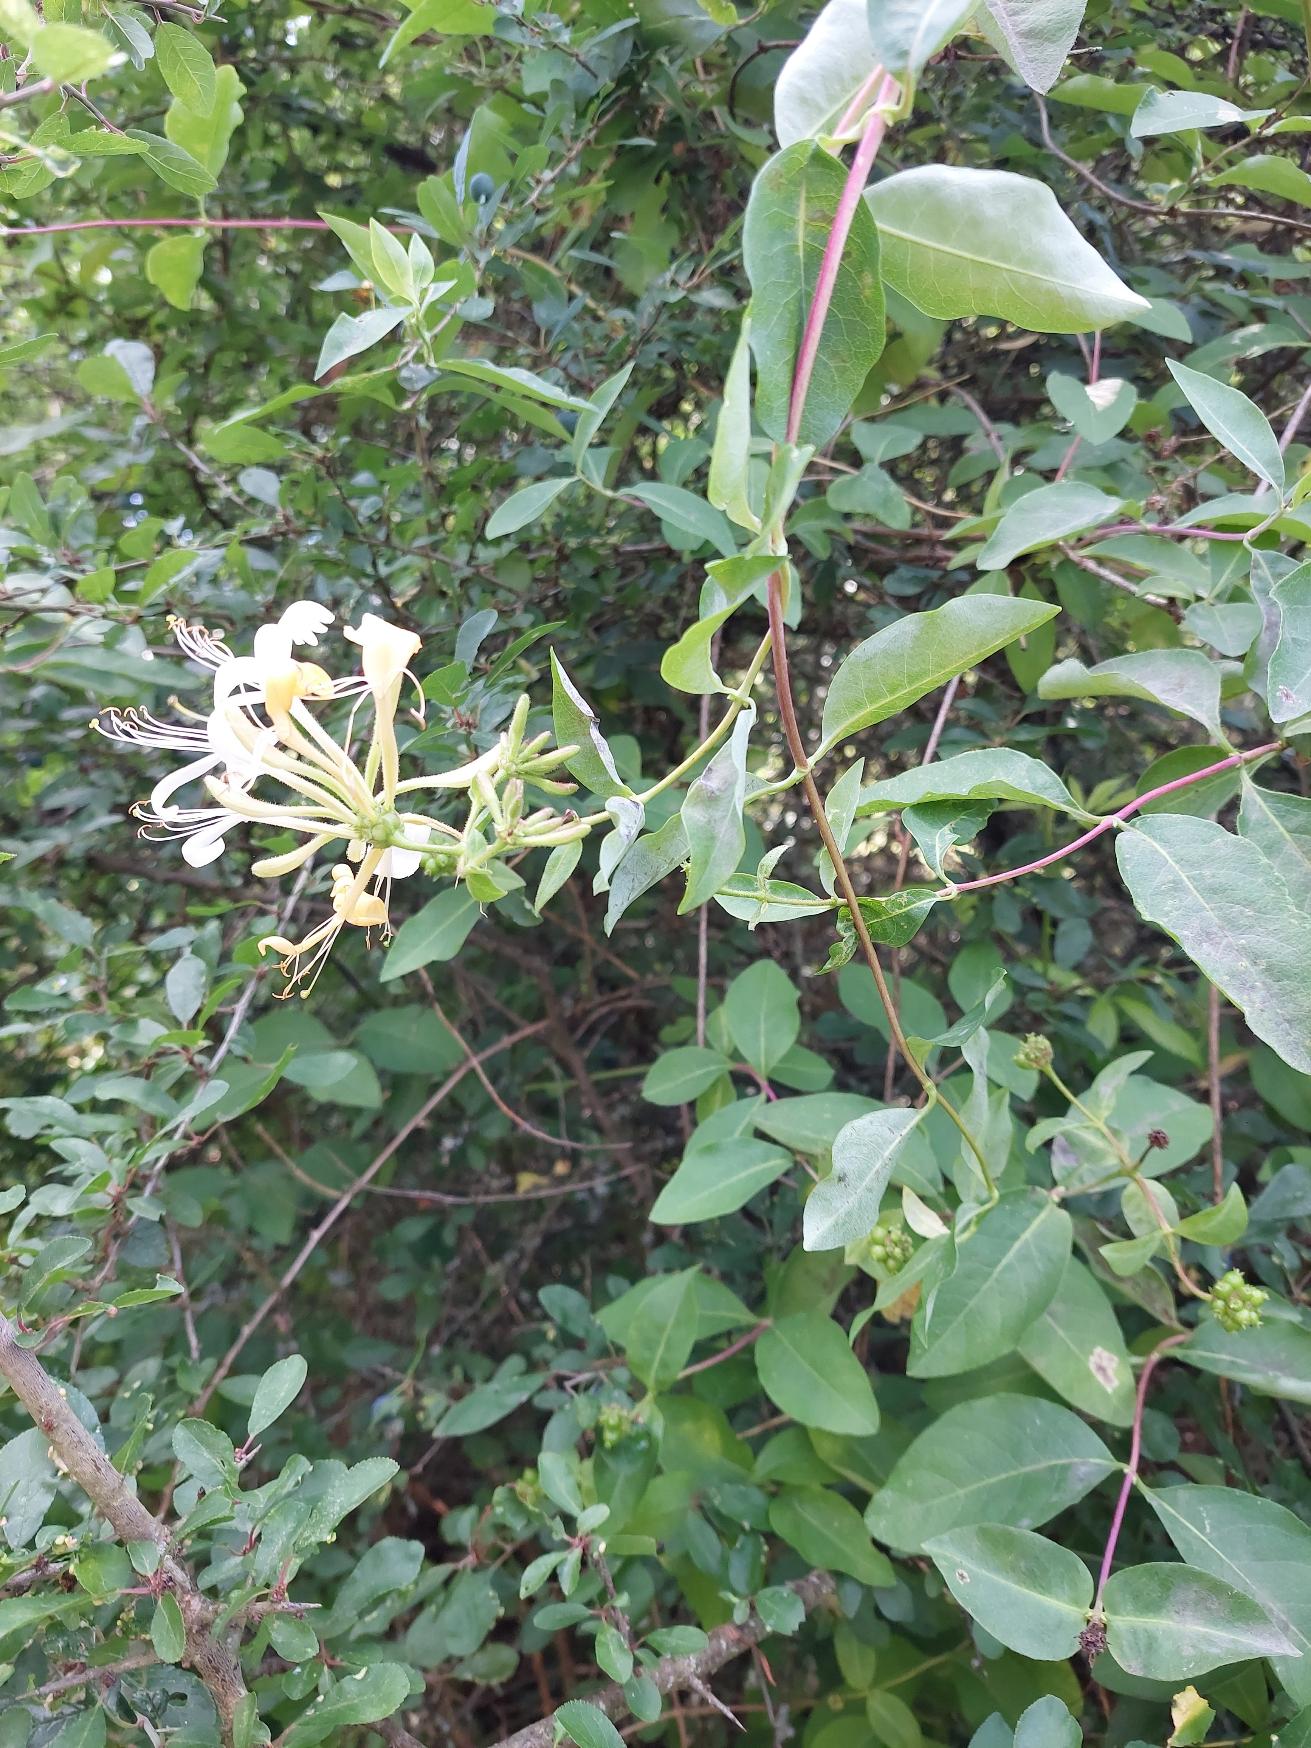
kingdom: Plantae
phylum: Tracheophyta
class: Magnoliopsida
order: Dipsacales
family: Caprifoliaceae
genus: Lonicera
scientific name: Lonicera periclymenum
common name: Almindelig gedeblad
